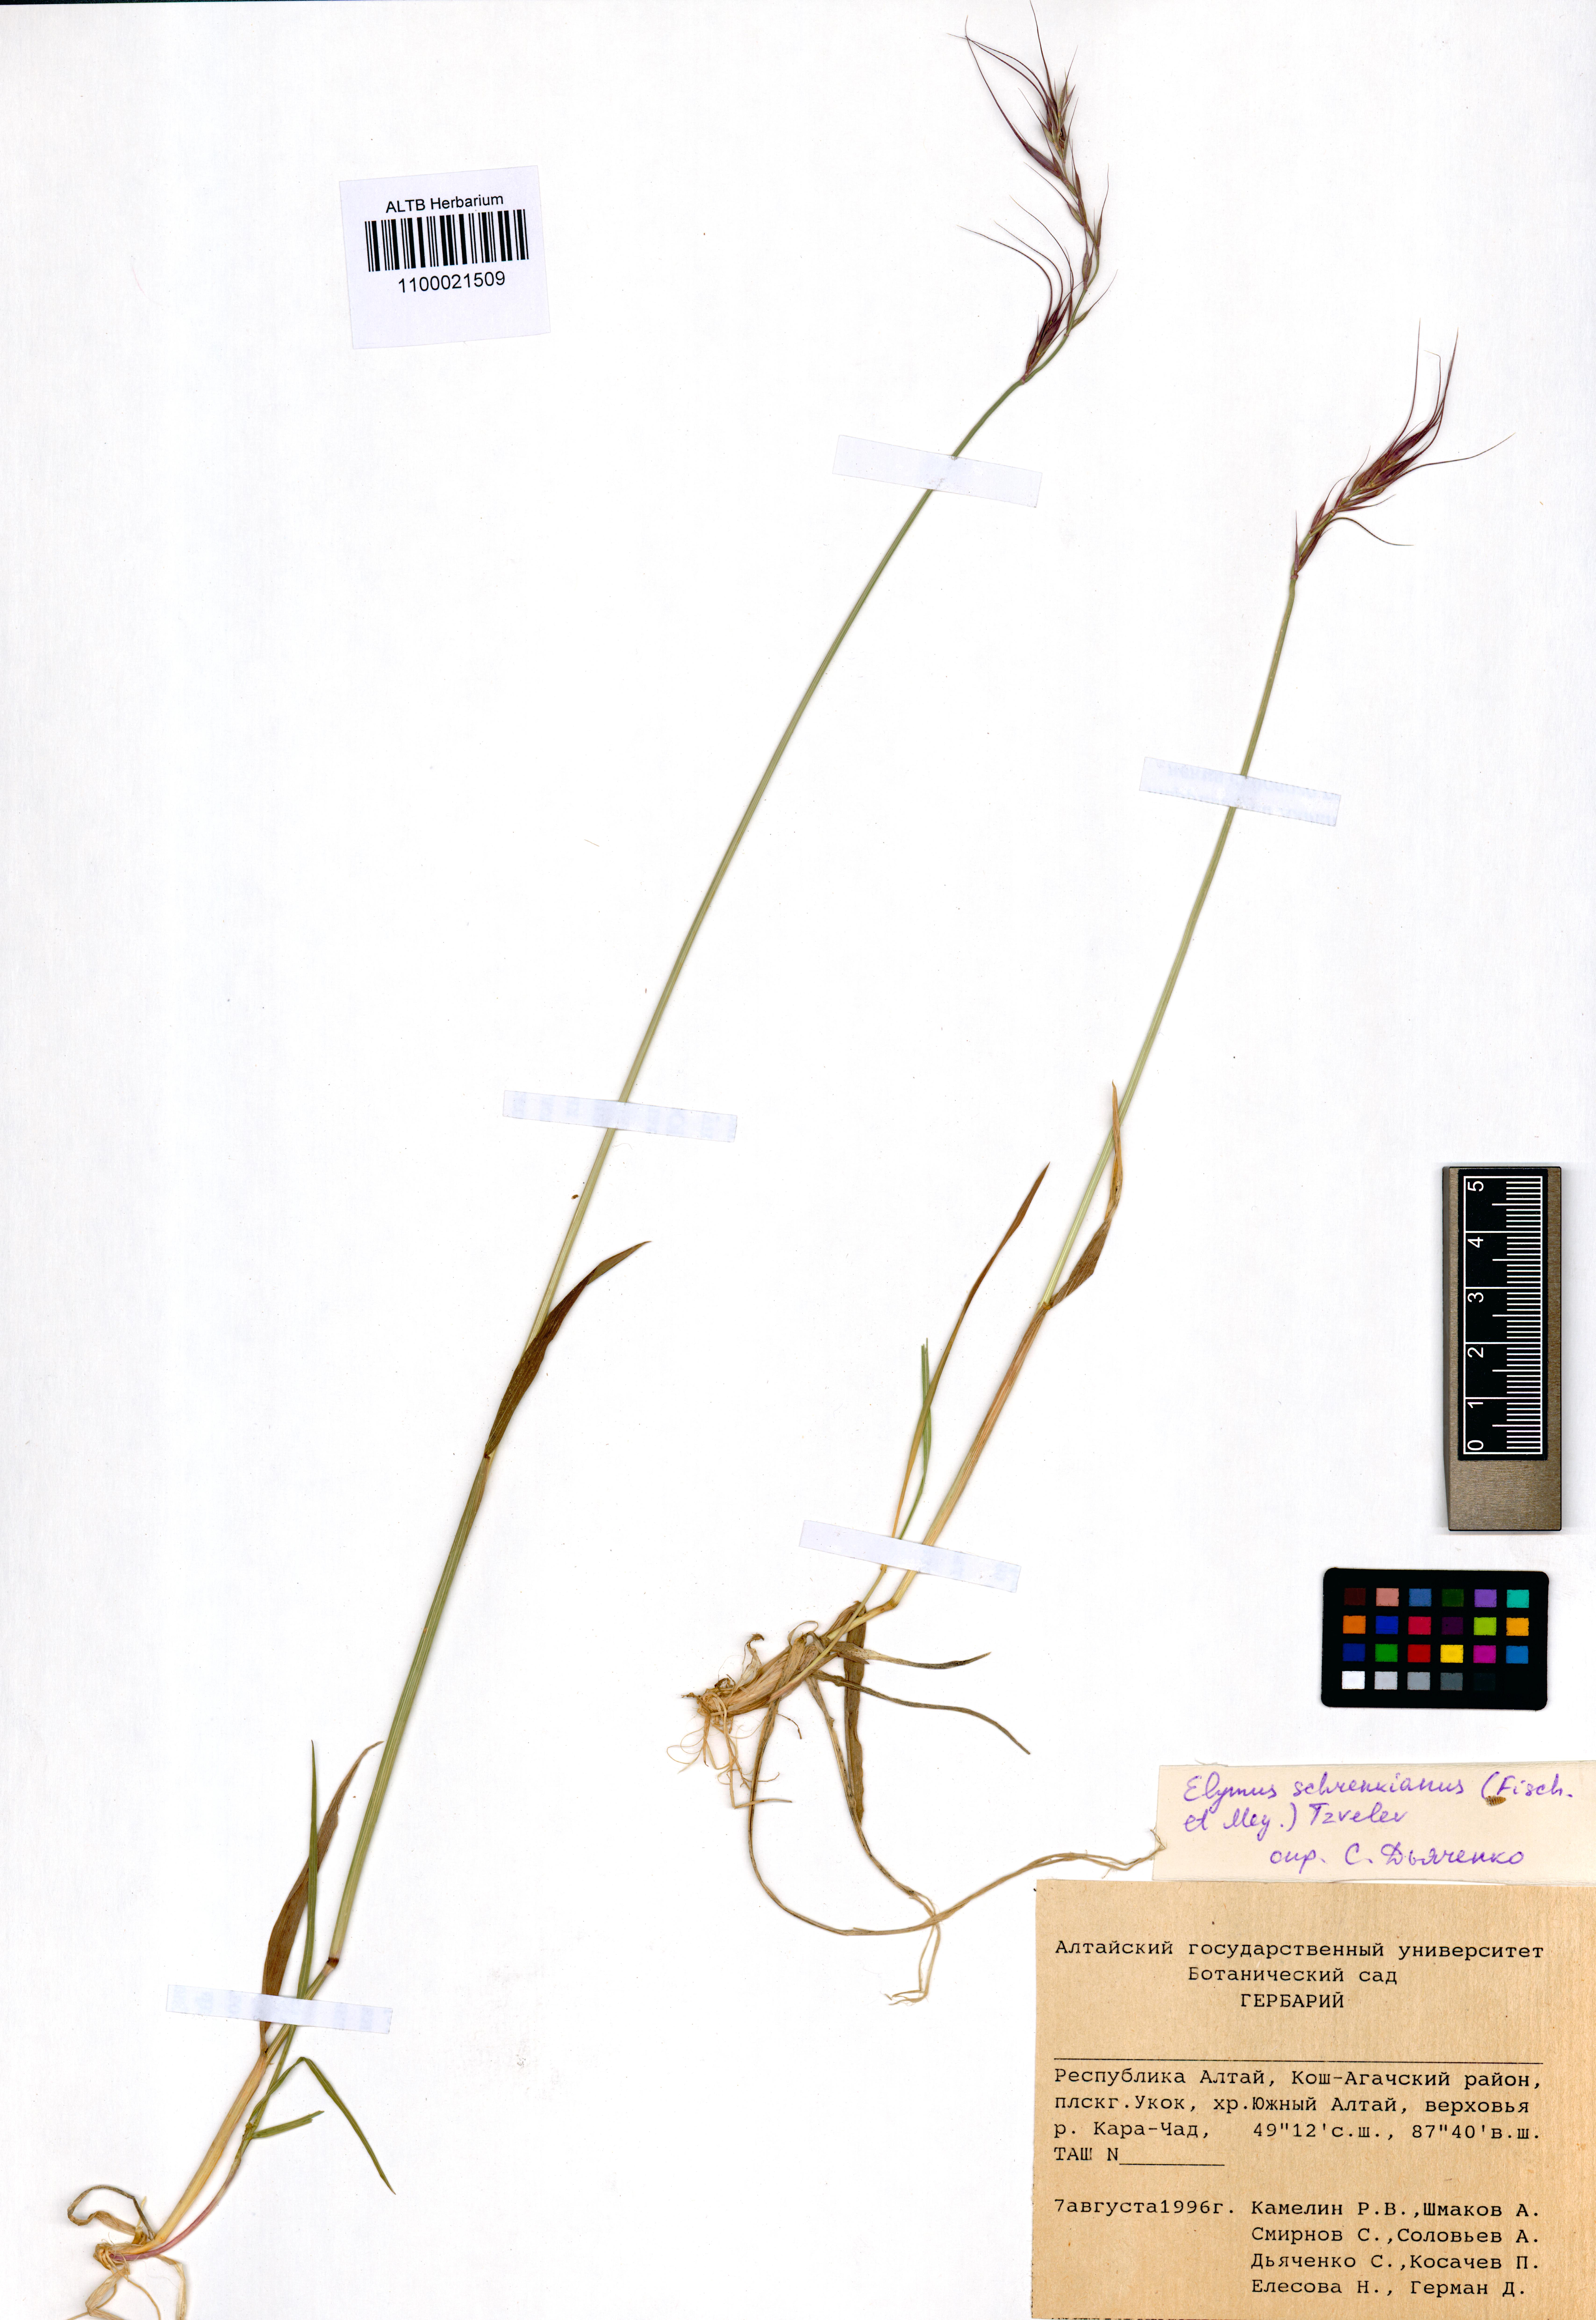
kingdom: Plantae
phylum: Tracheophyta
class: Liliopsida
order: Poales
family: Poaceae
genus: Campeiostachys
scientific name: Campeiostachys schrenkiana
